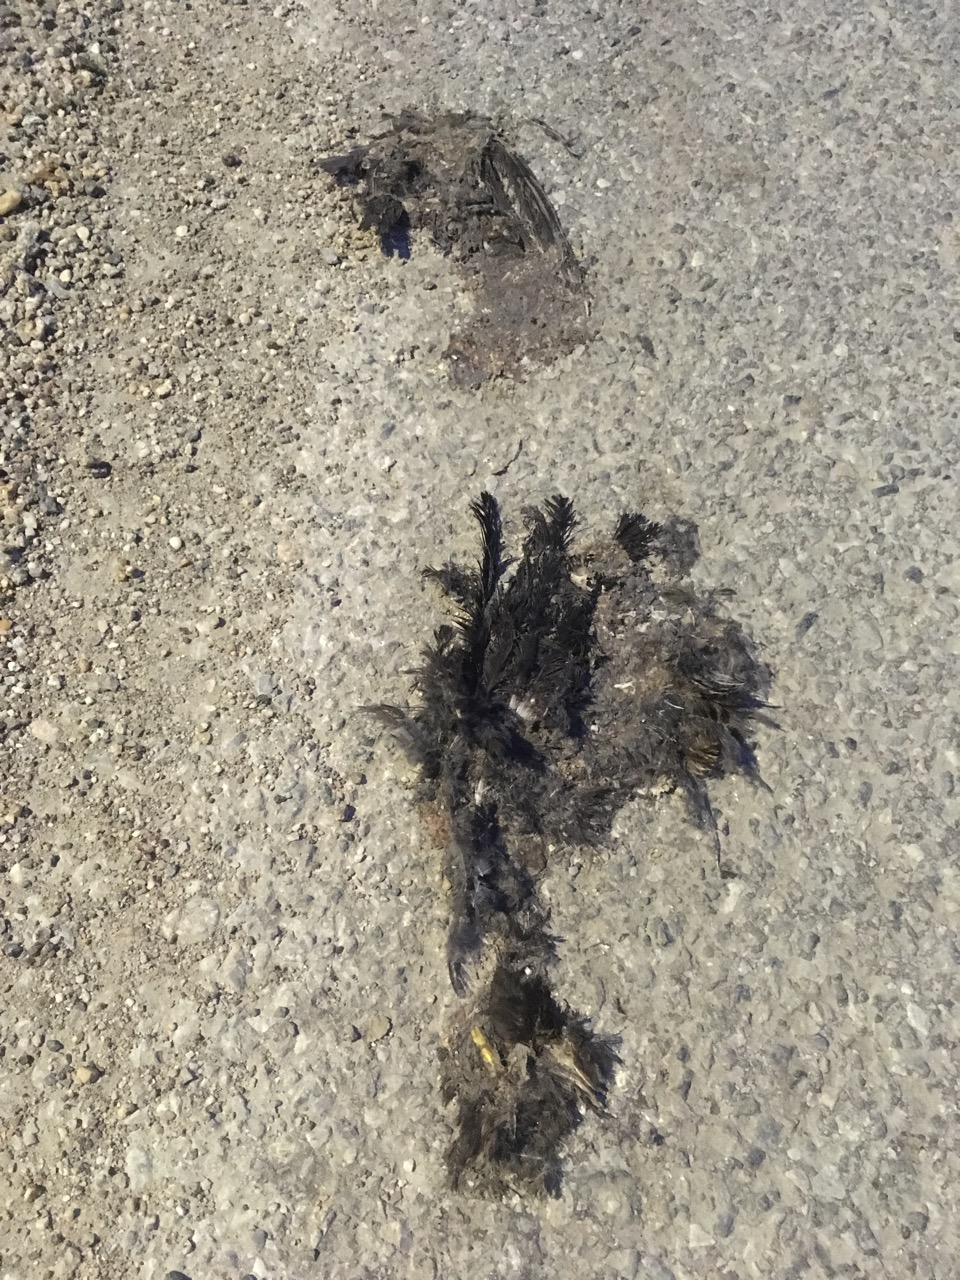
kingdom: Animalia
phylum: Chordata
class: Aves
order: Passeriformes
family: Turdidae
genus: Turdus
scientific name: Turdus merula
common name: Common blackbird
